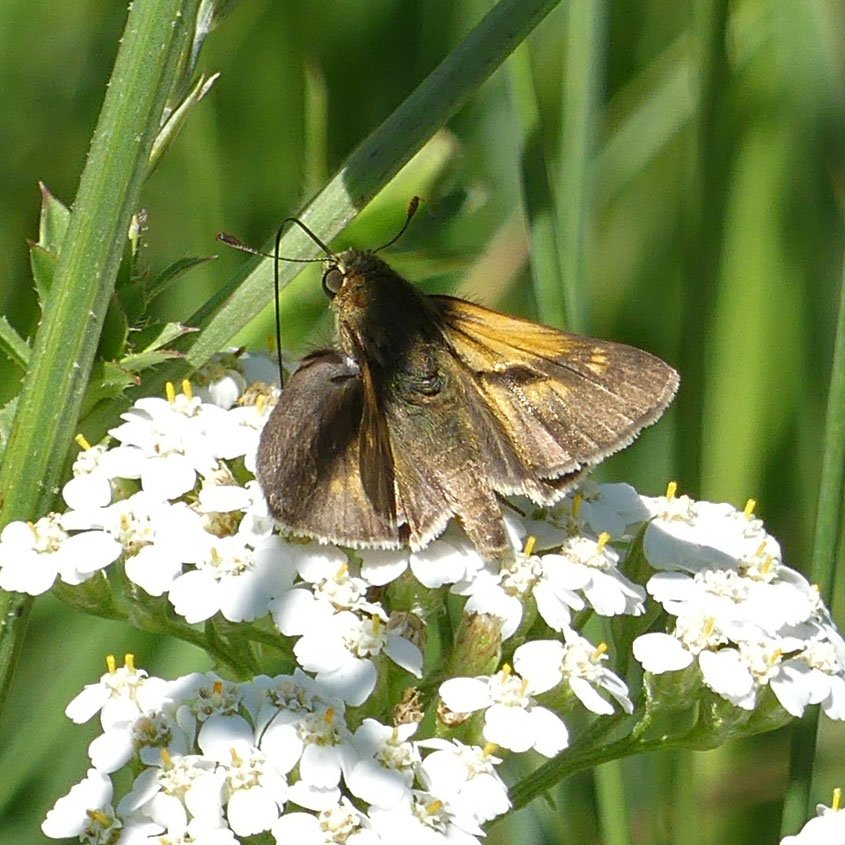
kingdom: Animalia
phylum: Arthropoda
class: Insecta
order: Lepidoptera
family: Hesperiidae
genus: Polites
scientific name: Polites themistocles
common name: Tawny-edged Skipper
